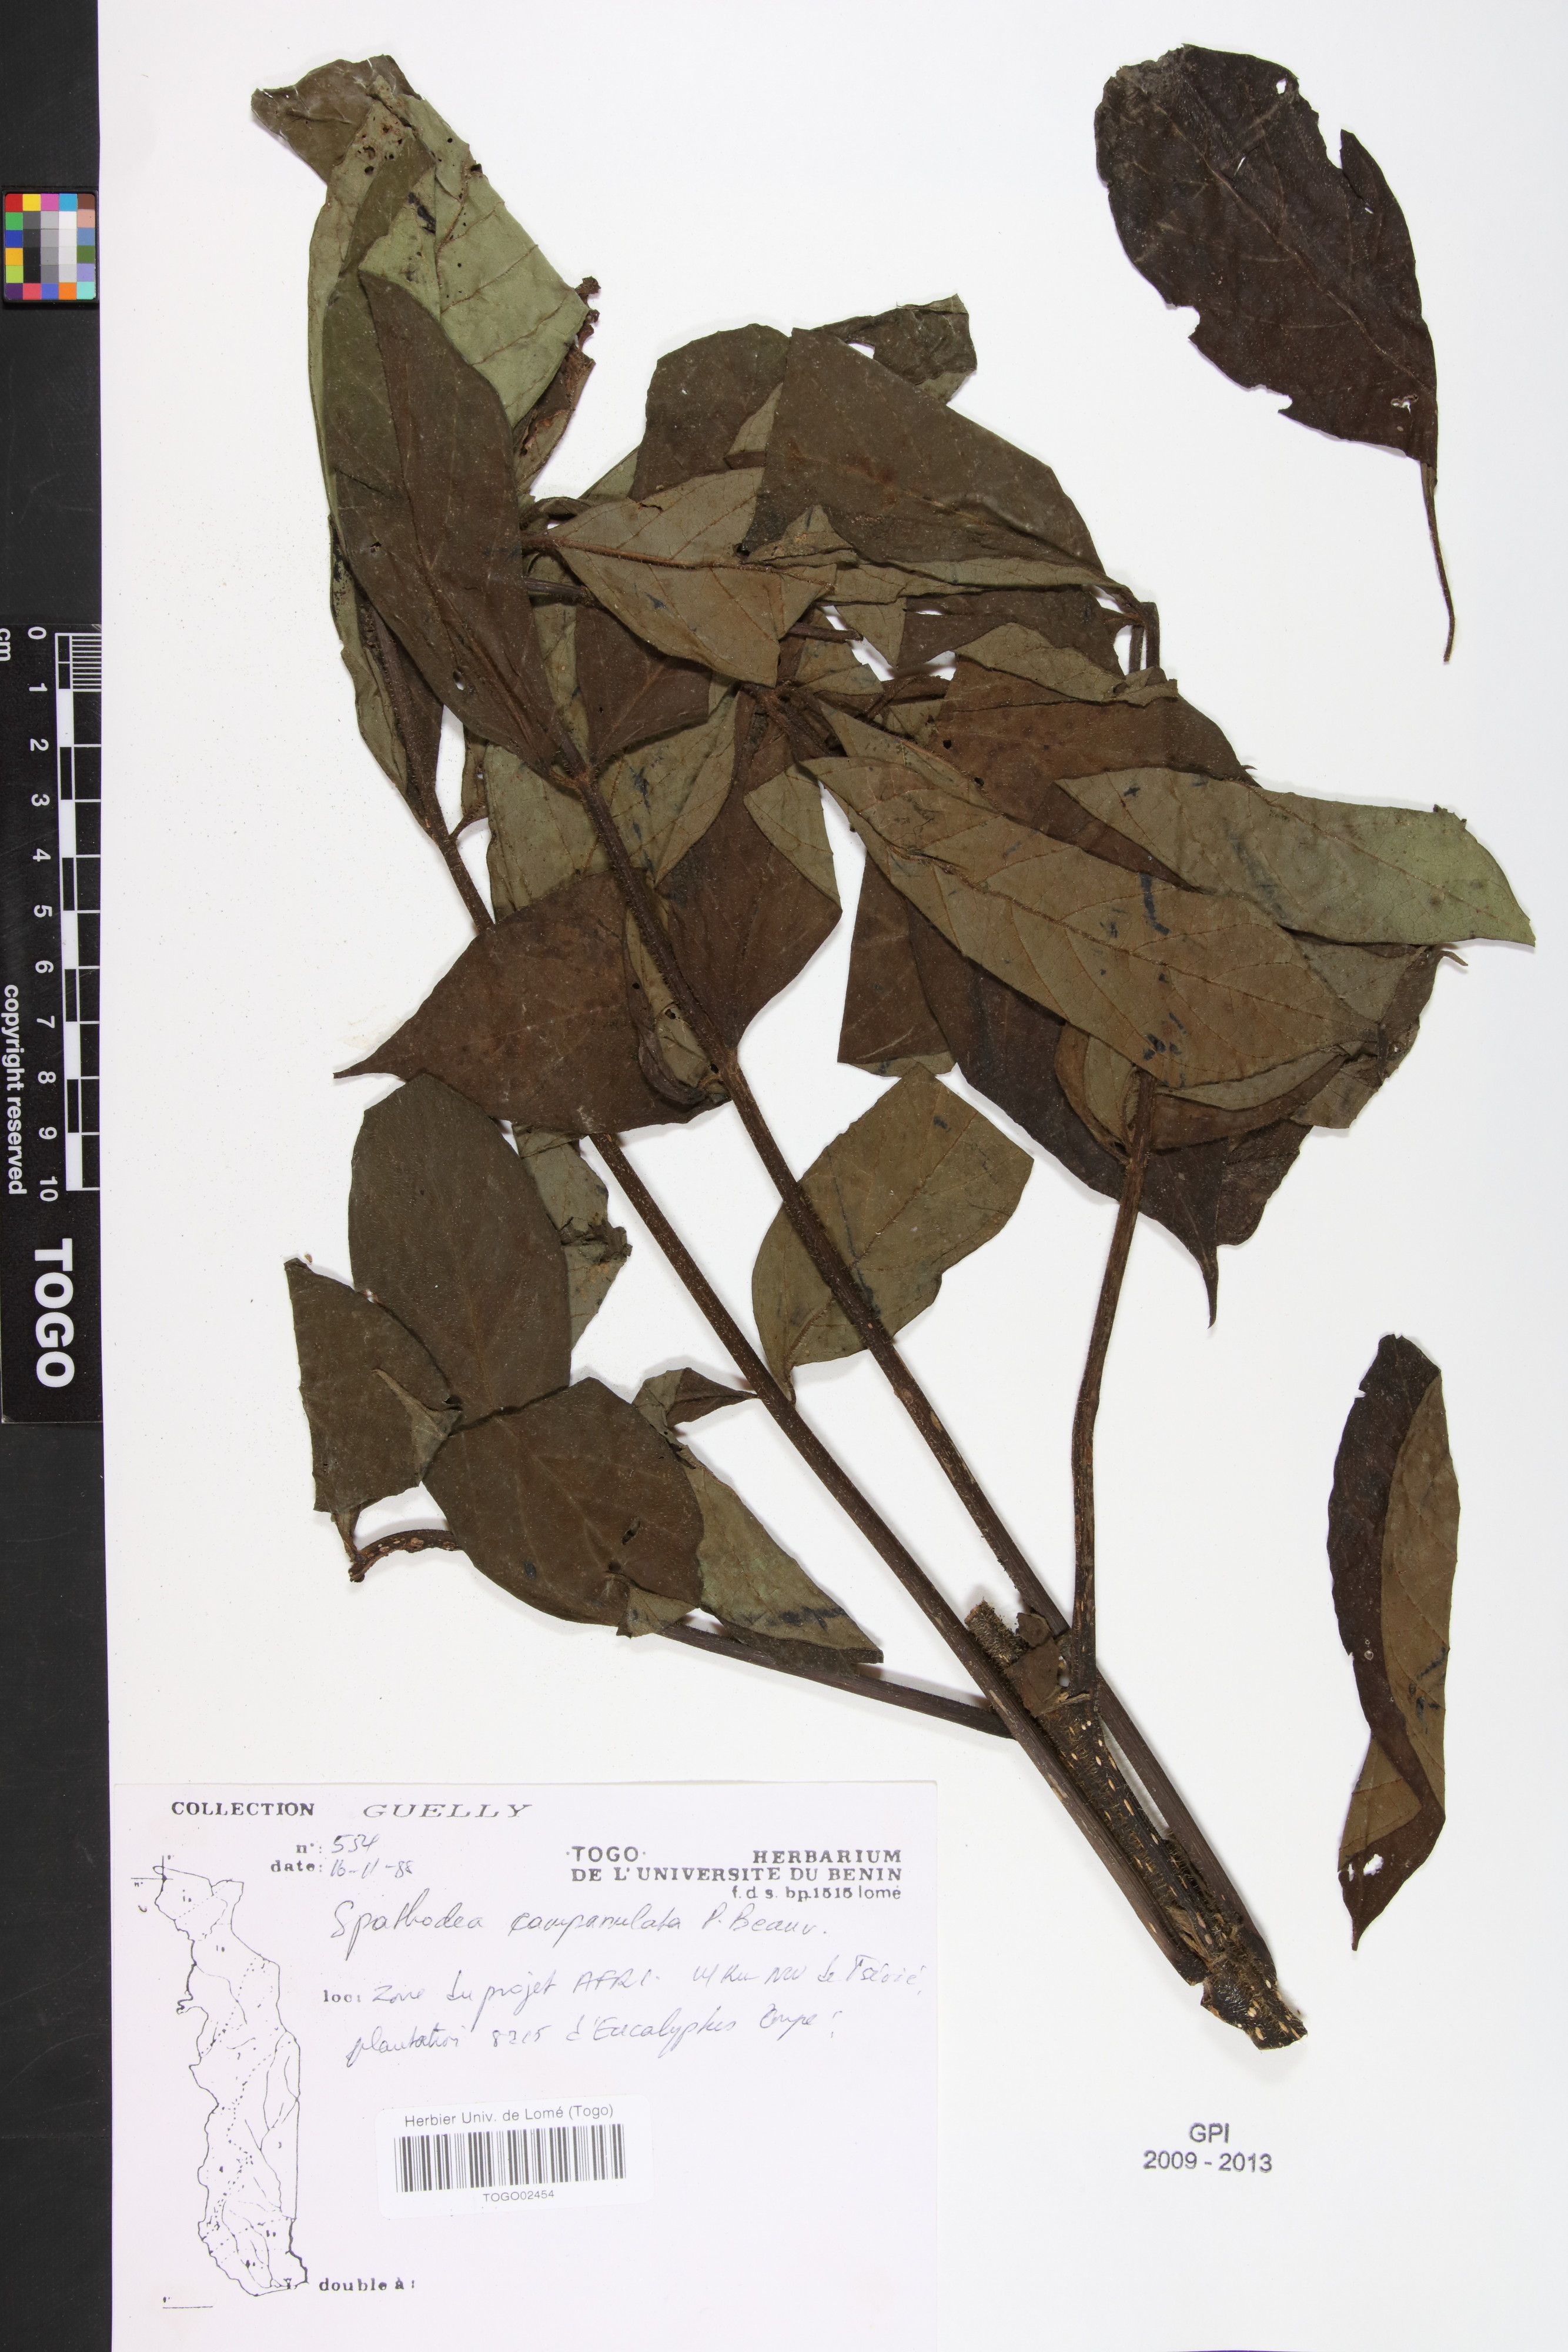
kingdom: Plantae
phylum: Tracheophyta
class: Magnoliopsida
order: Lamiales
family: Bignoniaceae
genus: Spathodea
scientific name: Spathodea campanulata
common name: African tuliptree
